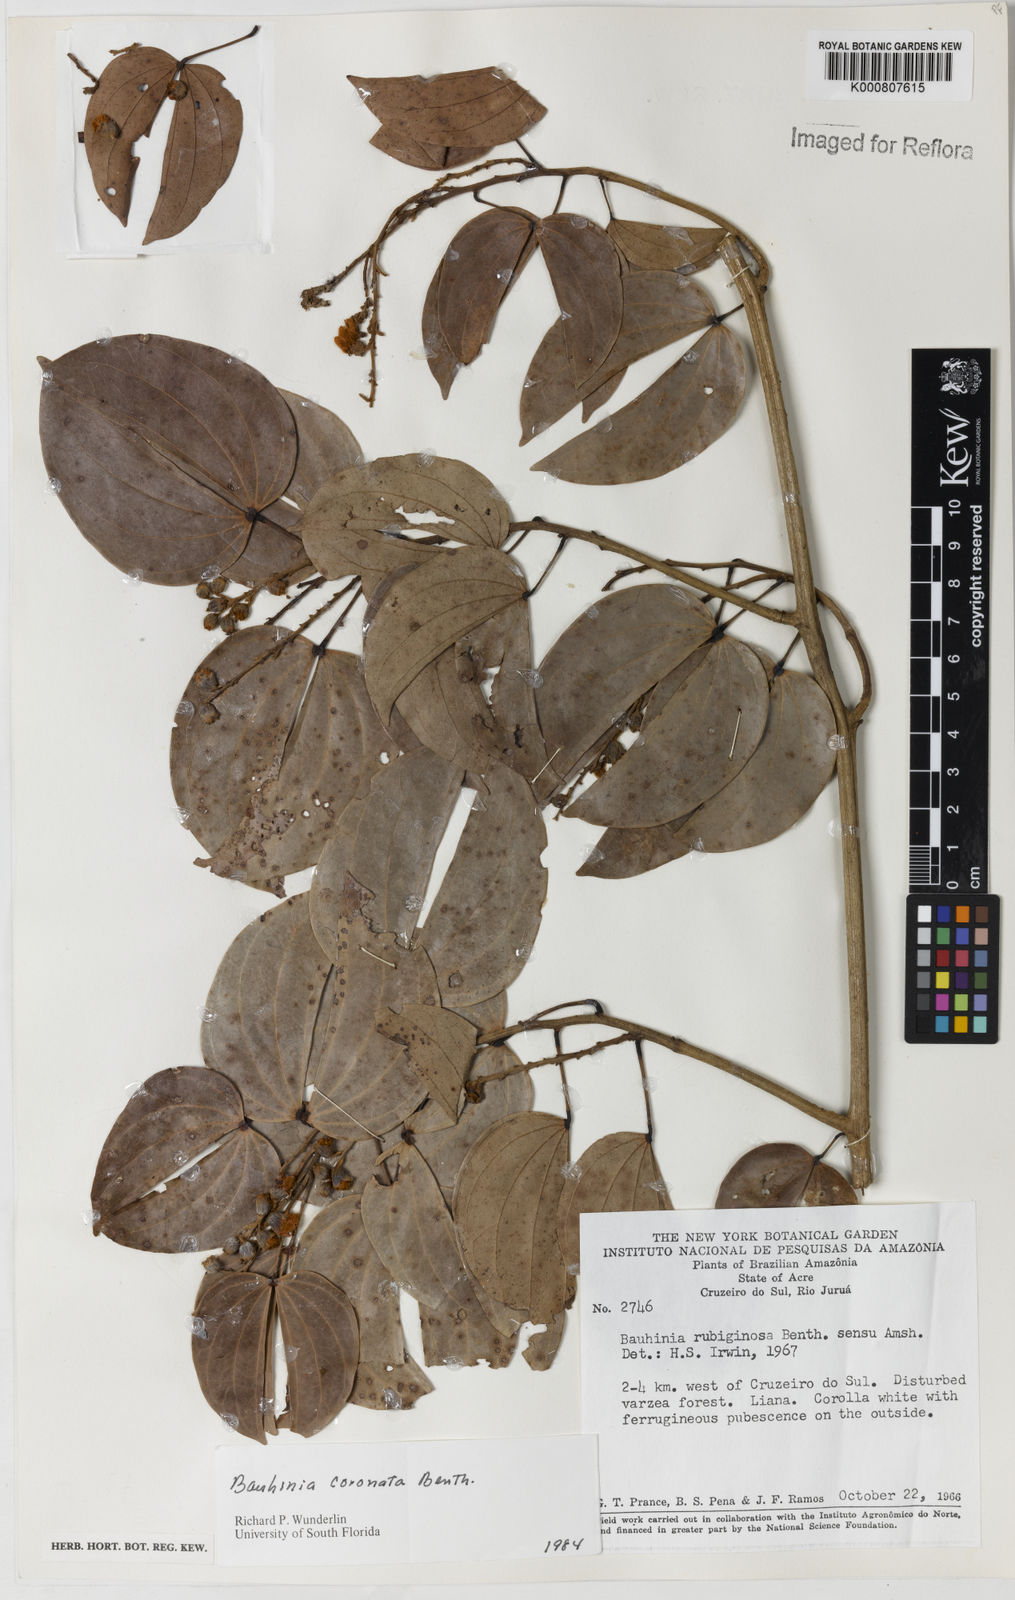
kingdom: Plantae
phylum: Tracheophyta
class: Magnoliopsida
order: Fabales
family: Fabaceae
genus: Schnella
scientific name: Schnella outimouta
